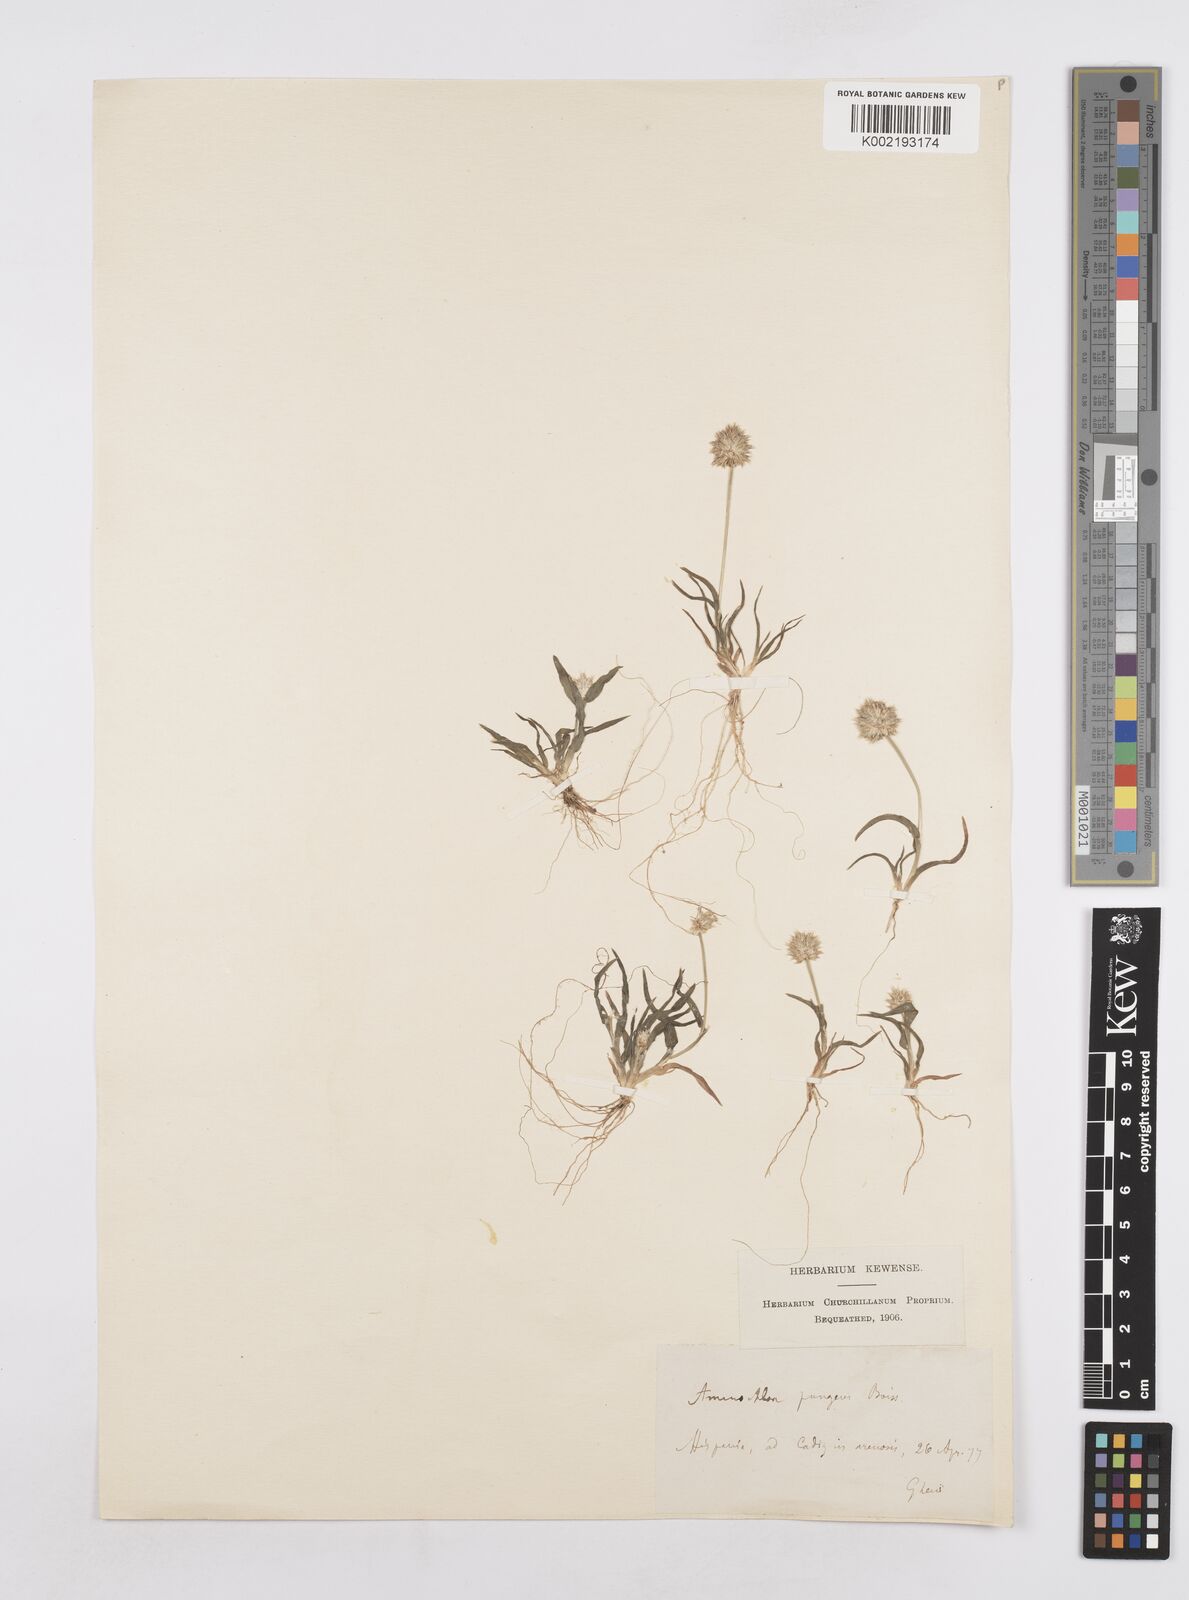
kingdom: Plantae
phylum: Tracheophyta
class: Liliopsida
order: Poales
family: Poaceae
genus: Ammochloa
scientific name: Ammochloa pungens
